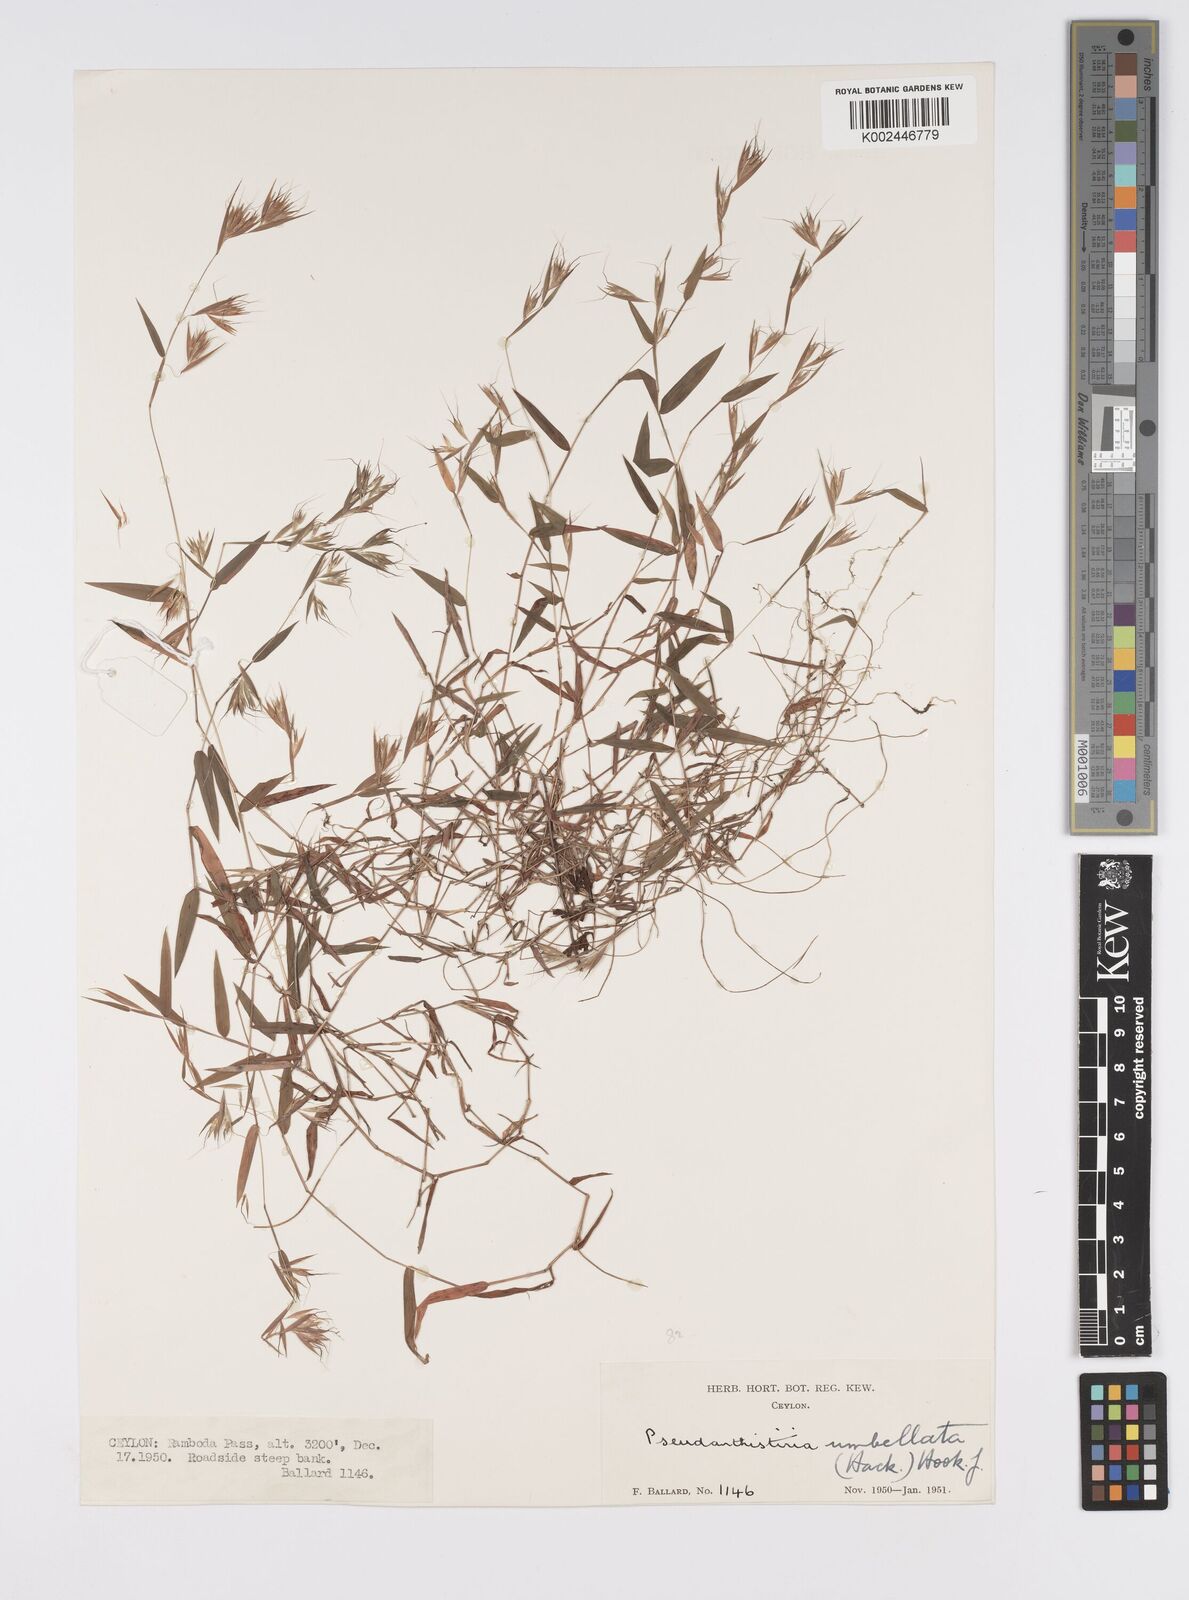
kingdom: Plantae
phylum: Tracheophyta
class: Liliopsida
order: Poales
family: Poaceae
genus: Pseudanthistiria
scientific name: Pseudanthistiria umbellata
